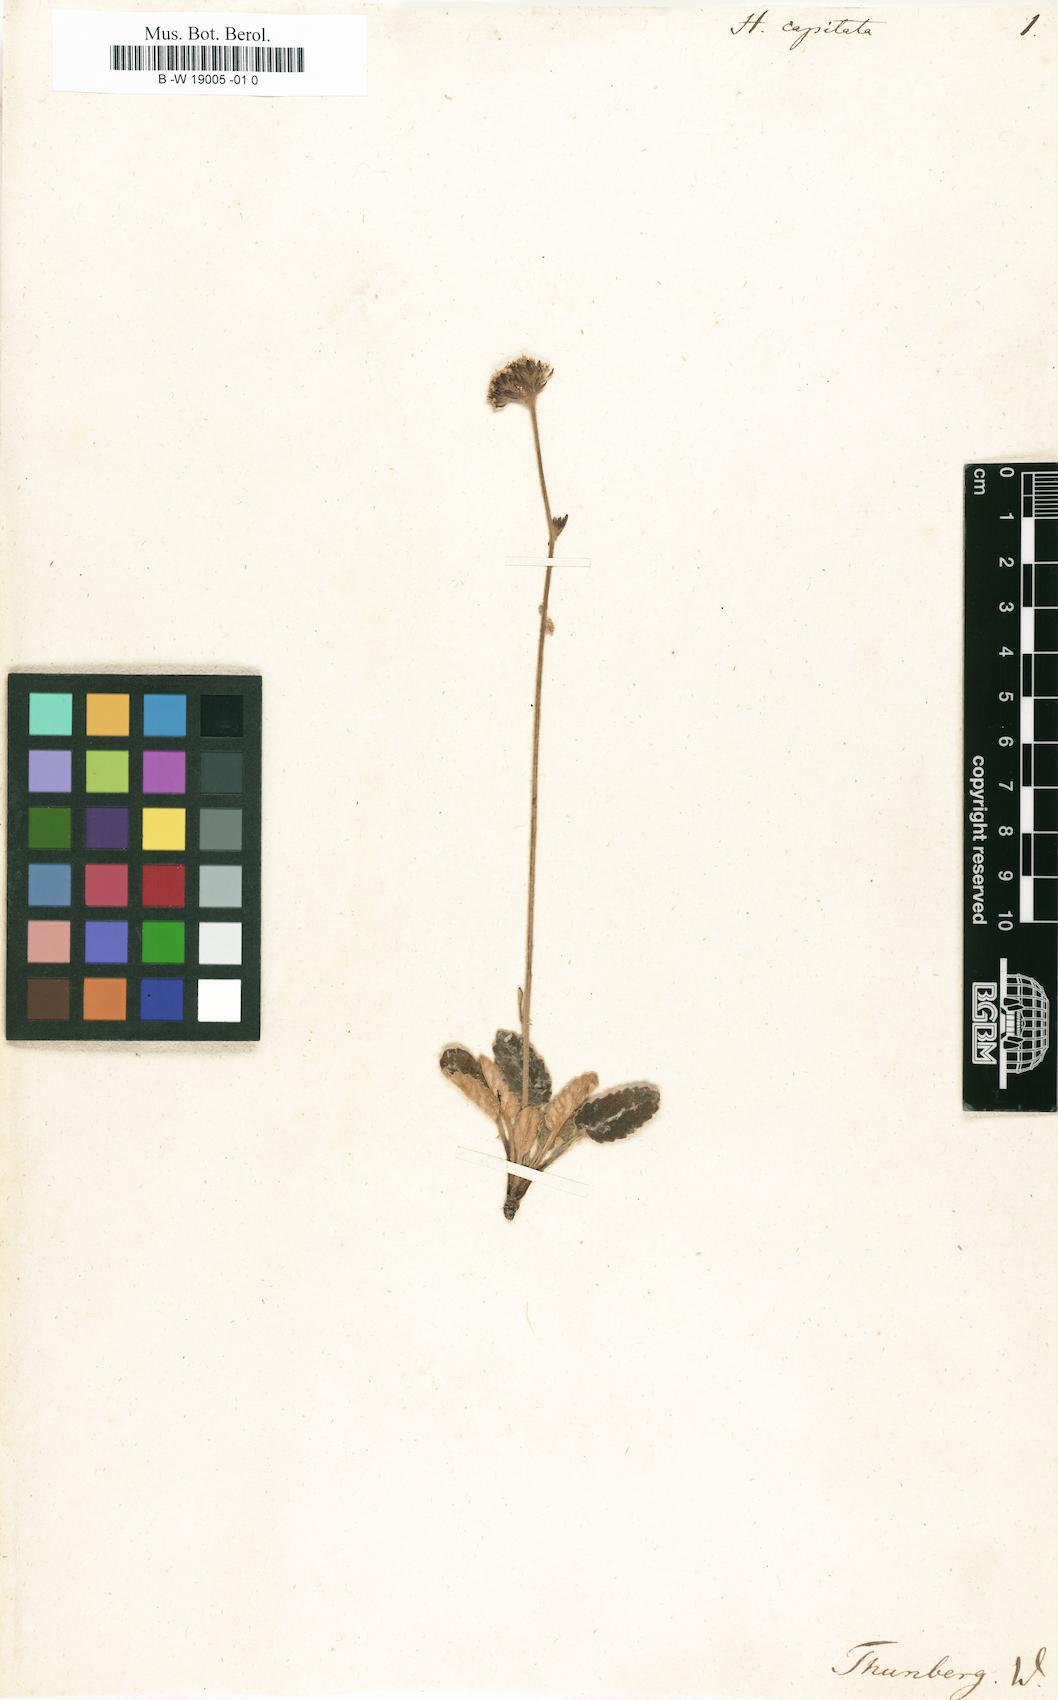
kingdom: Plantae
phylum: Tracheophyta
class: Magnoliopsida
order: Apiales
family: Apiaceae
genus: Hermas
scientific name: Hermas capitata
